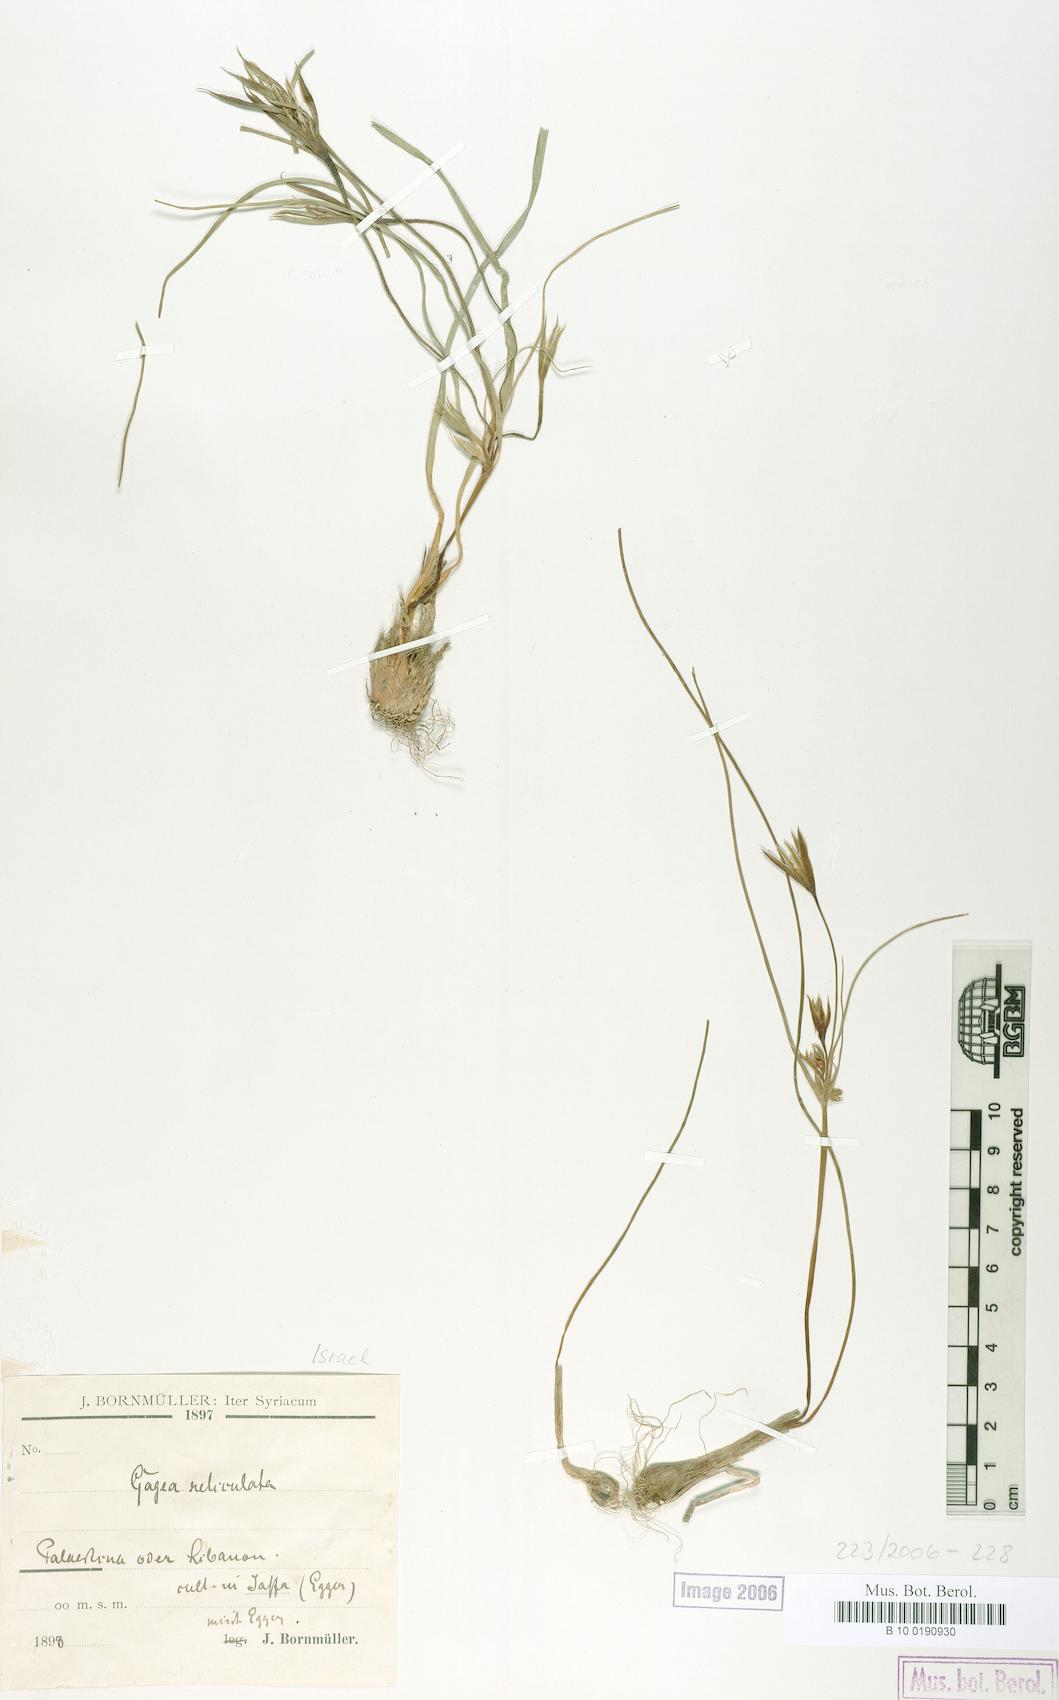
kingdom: Plantae
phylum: Tracheophyta
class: Liliopsida
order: Liliales
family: Liliaceae
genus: Gagea
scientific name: Gagea reticulata
